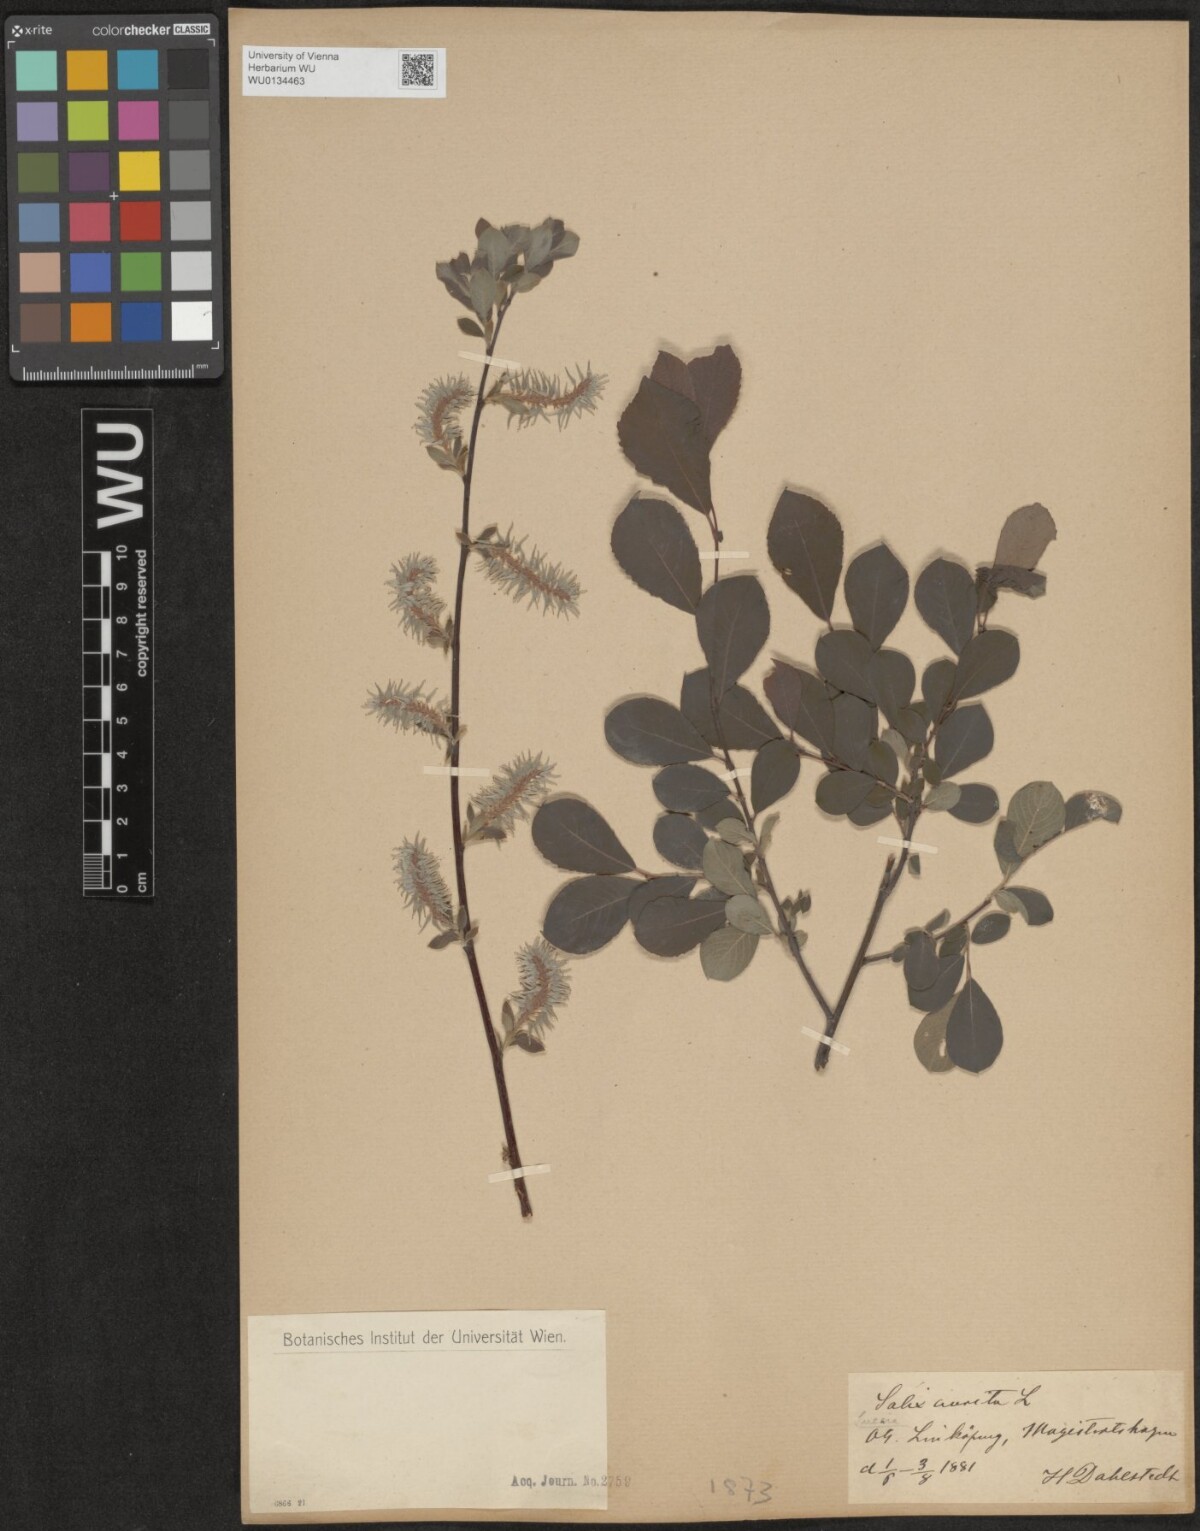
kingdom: Plantae
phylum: Tracheophyta
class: Magnoliopsida
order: Malpighiales
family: Salicaceae
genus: Salix
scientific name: Salix aurita
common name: Eared willow
